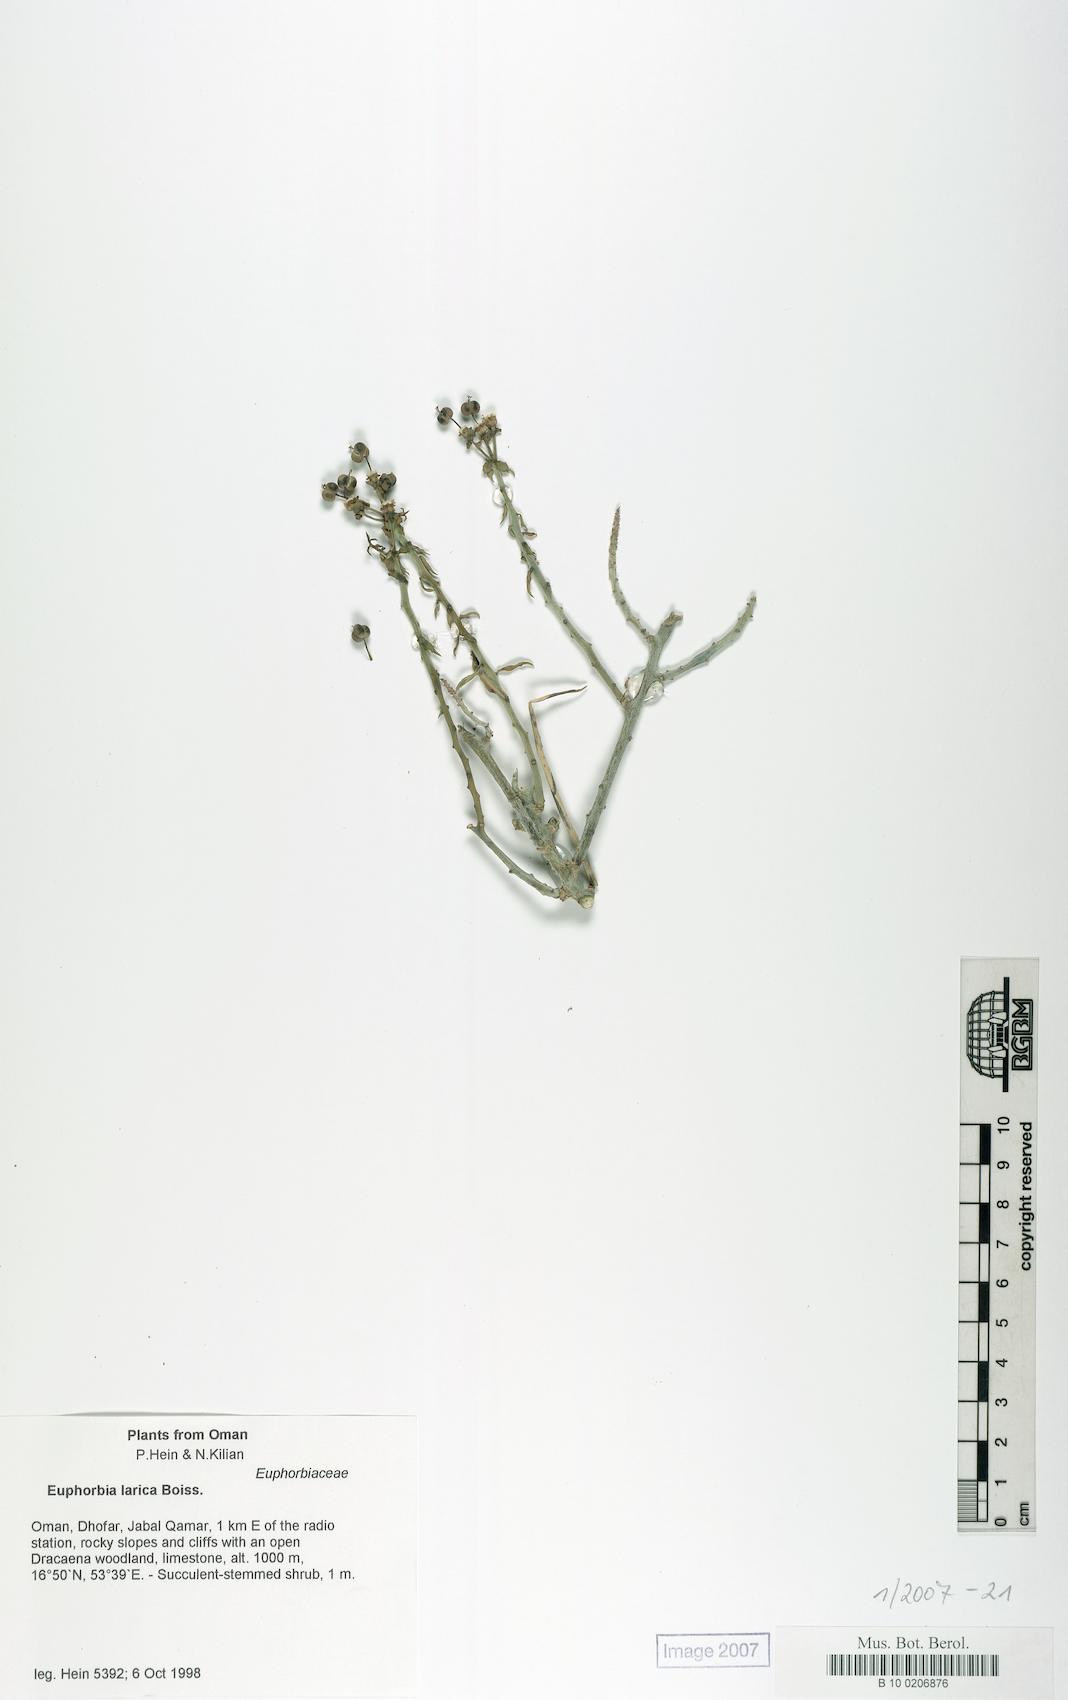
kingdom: Plantae
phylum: Tracheophyta
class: Magnoliopsida
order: Malpighiales
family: Euphorbiaceae
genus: Euphorbia
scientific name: Euphorbia larica
